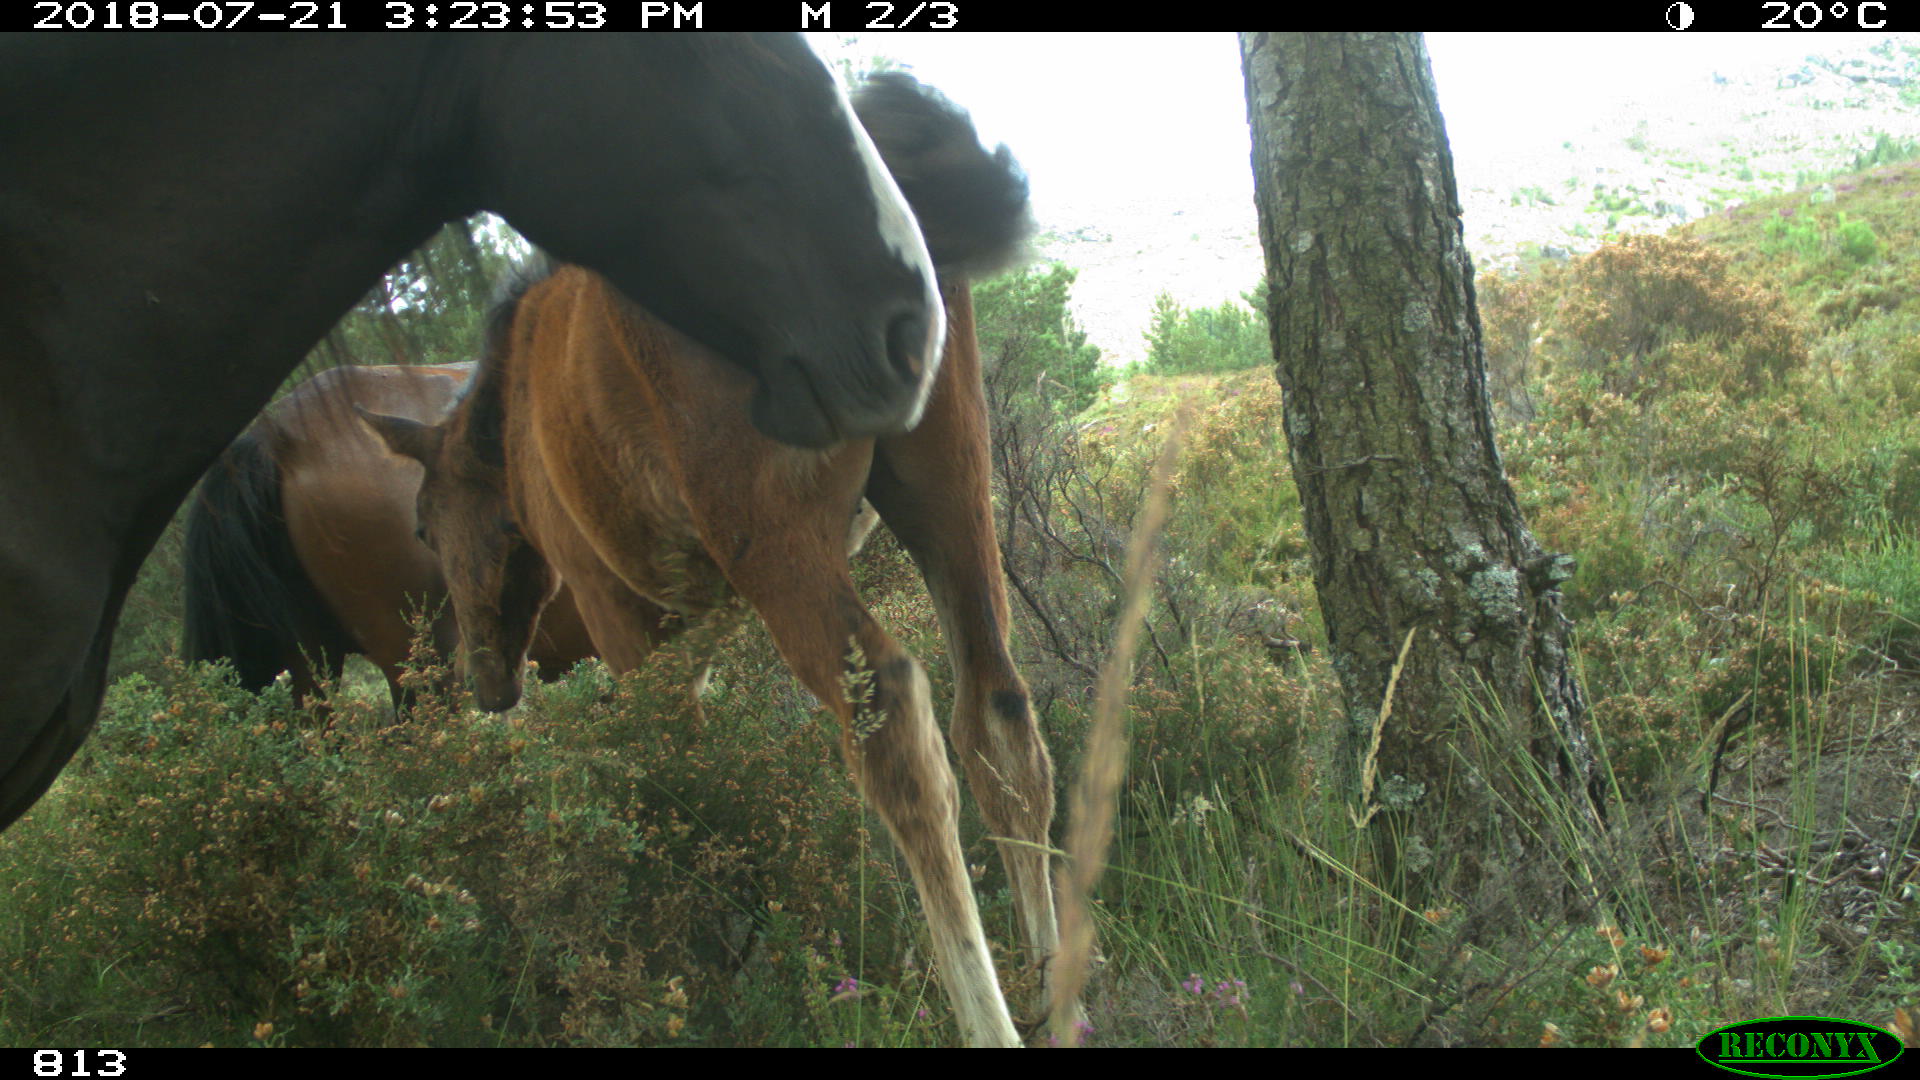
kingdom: Animalia
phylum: Chordata
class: Mammalia
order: Perissodactyla
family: Equidae
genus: Equus
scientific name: Equus caballus
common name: Horse
